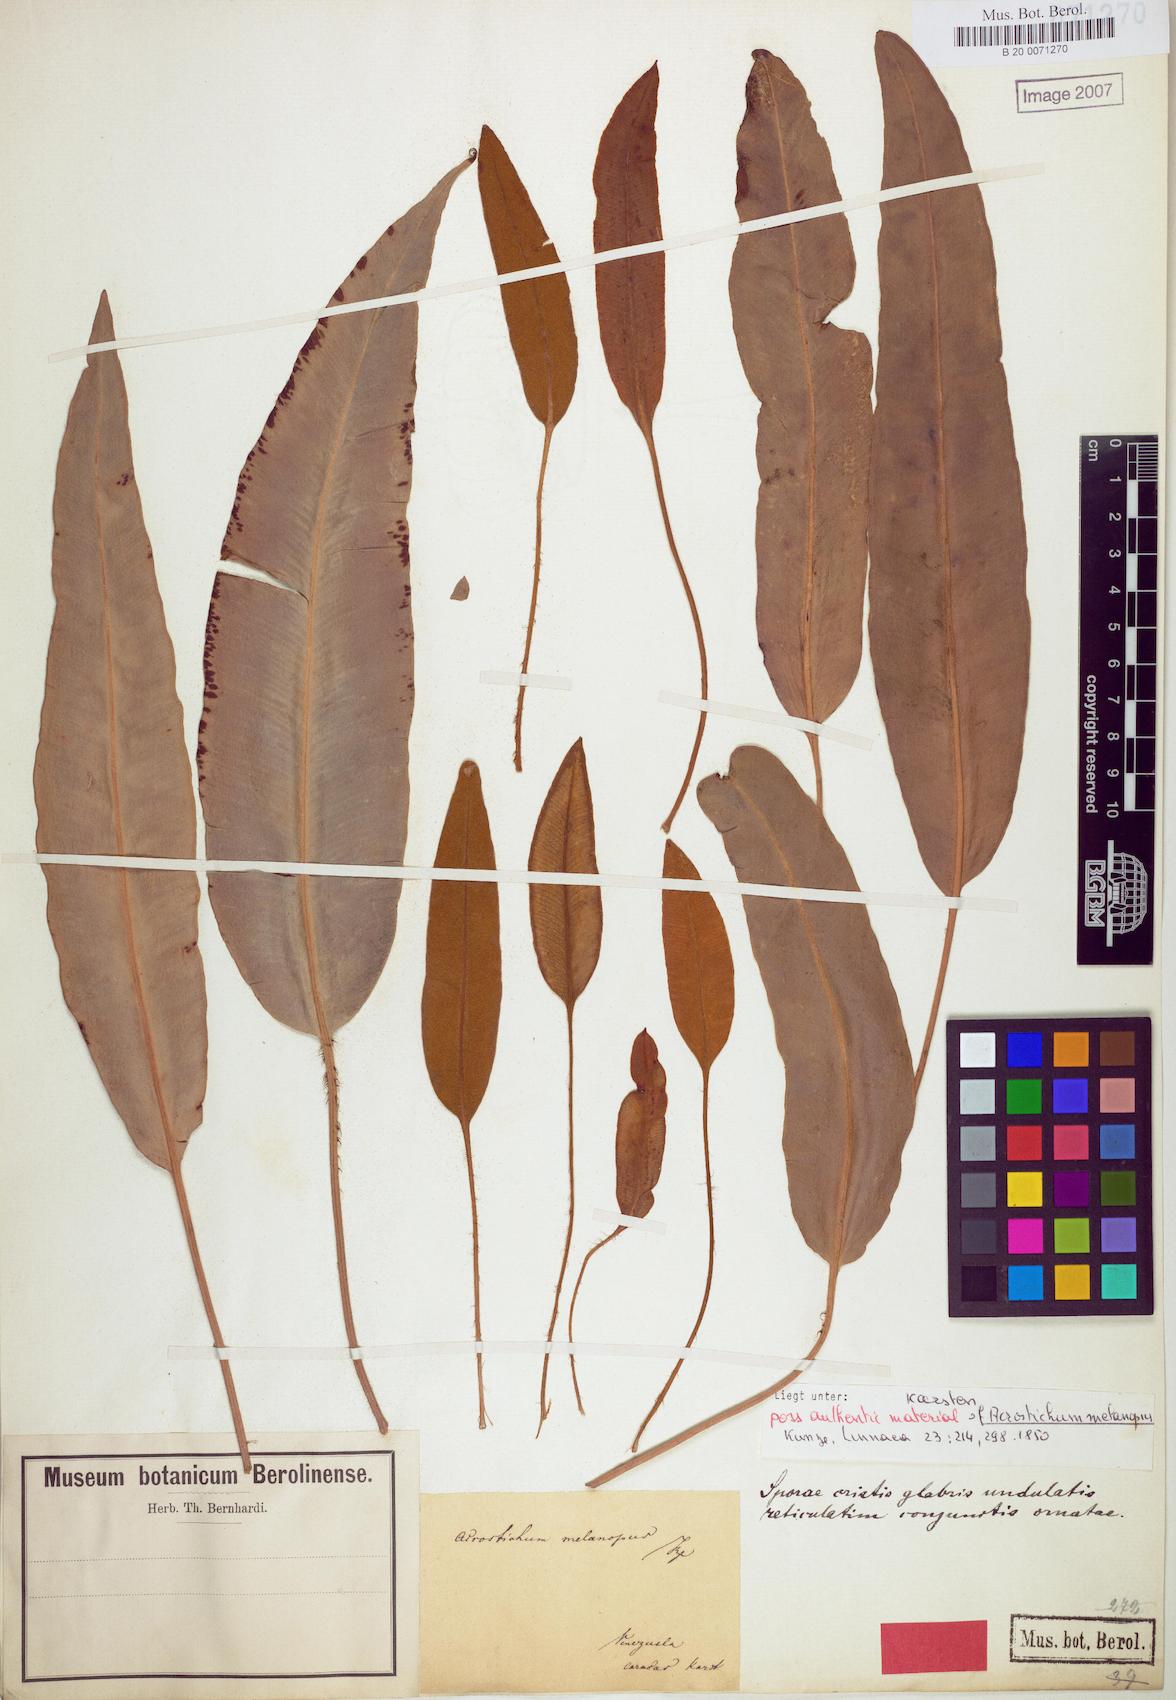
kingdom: Plantae
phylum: Tracheophyta
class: Polypodiopsida
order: Polypodiales
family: Dryopteridaceae
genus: Elaphoglossum
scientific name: Elaphoglossum hybridum
